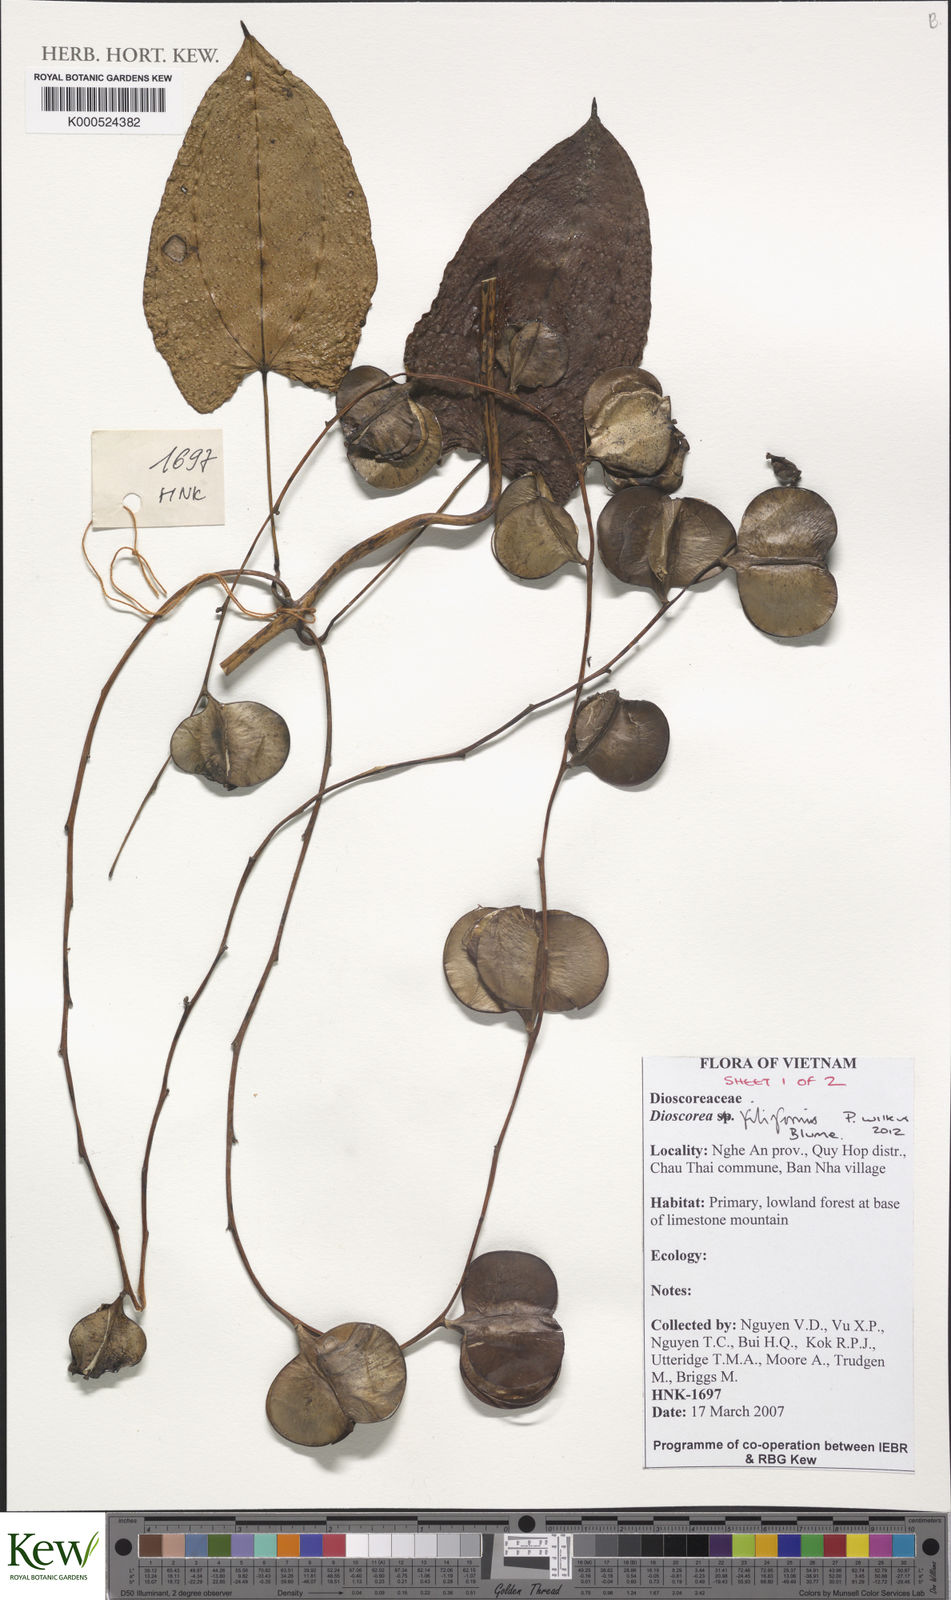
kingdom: Plantae
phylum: Tracheophyta
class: Liliopsida
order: Dioscoreales
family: Dioscoreaceae
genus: Dioscorea
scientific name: Dioscorea filiformis
